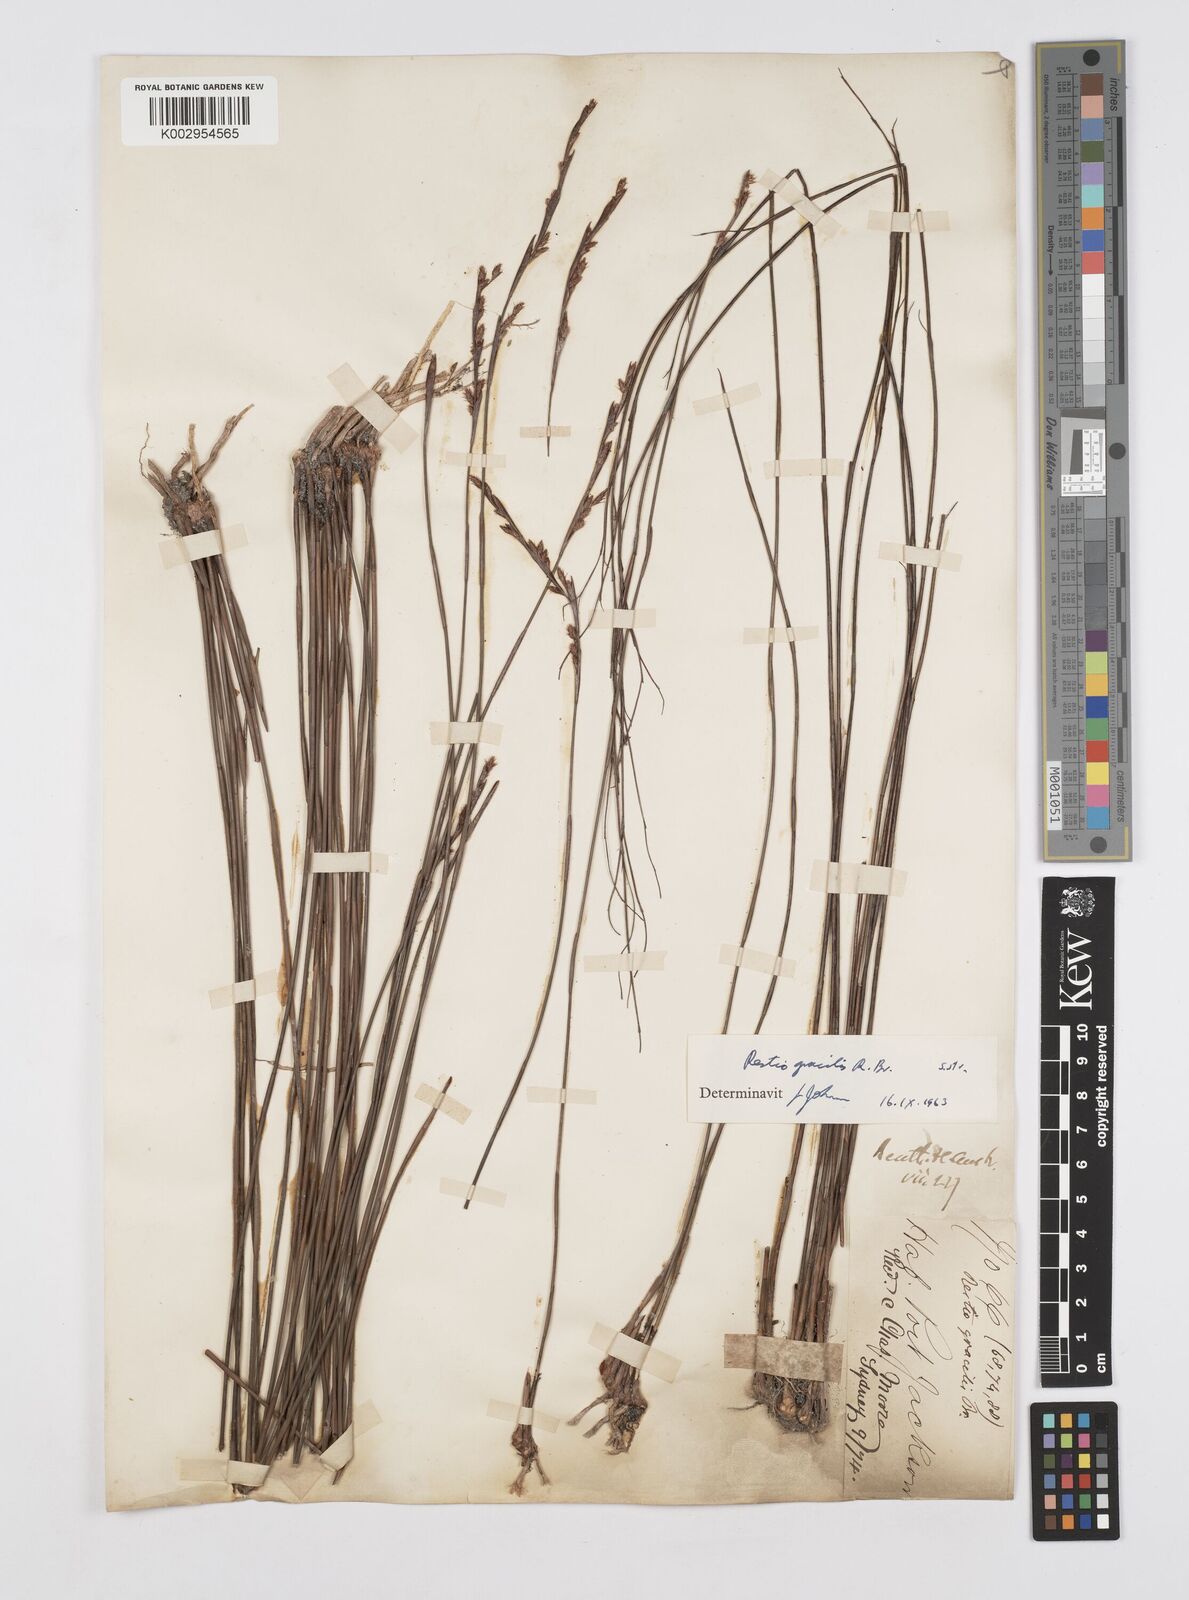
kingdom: Plantae
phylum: Tracheophyta
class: Liliopsida
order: Poales
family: Restionaceae
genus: Baloskion
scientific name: Baloskion gracile
